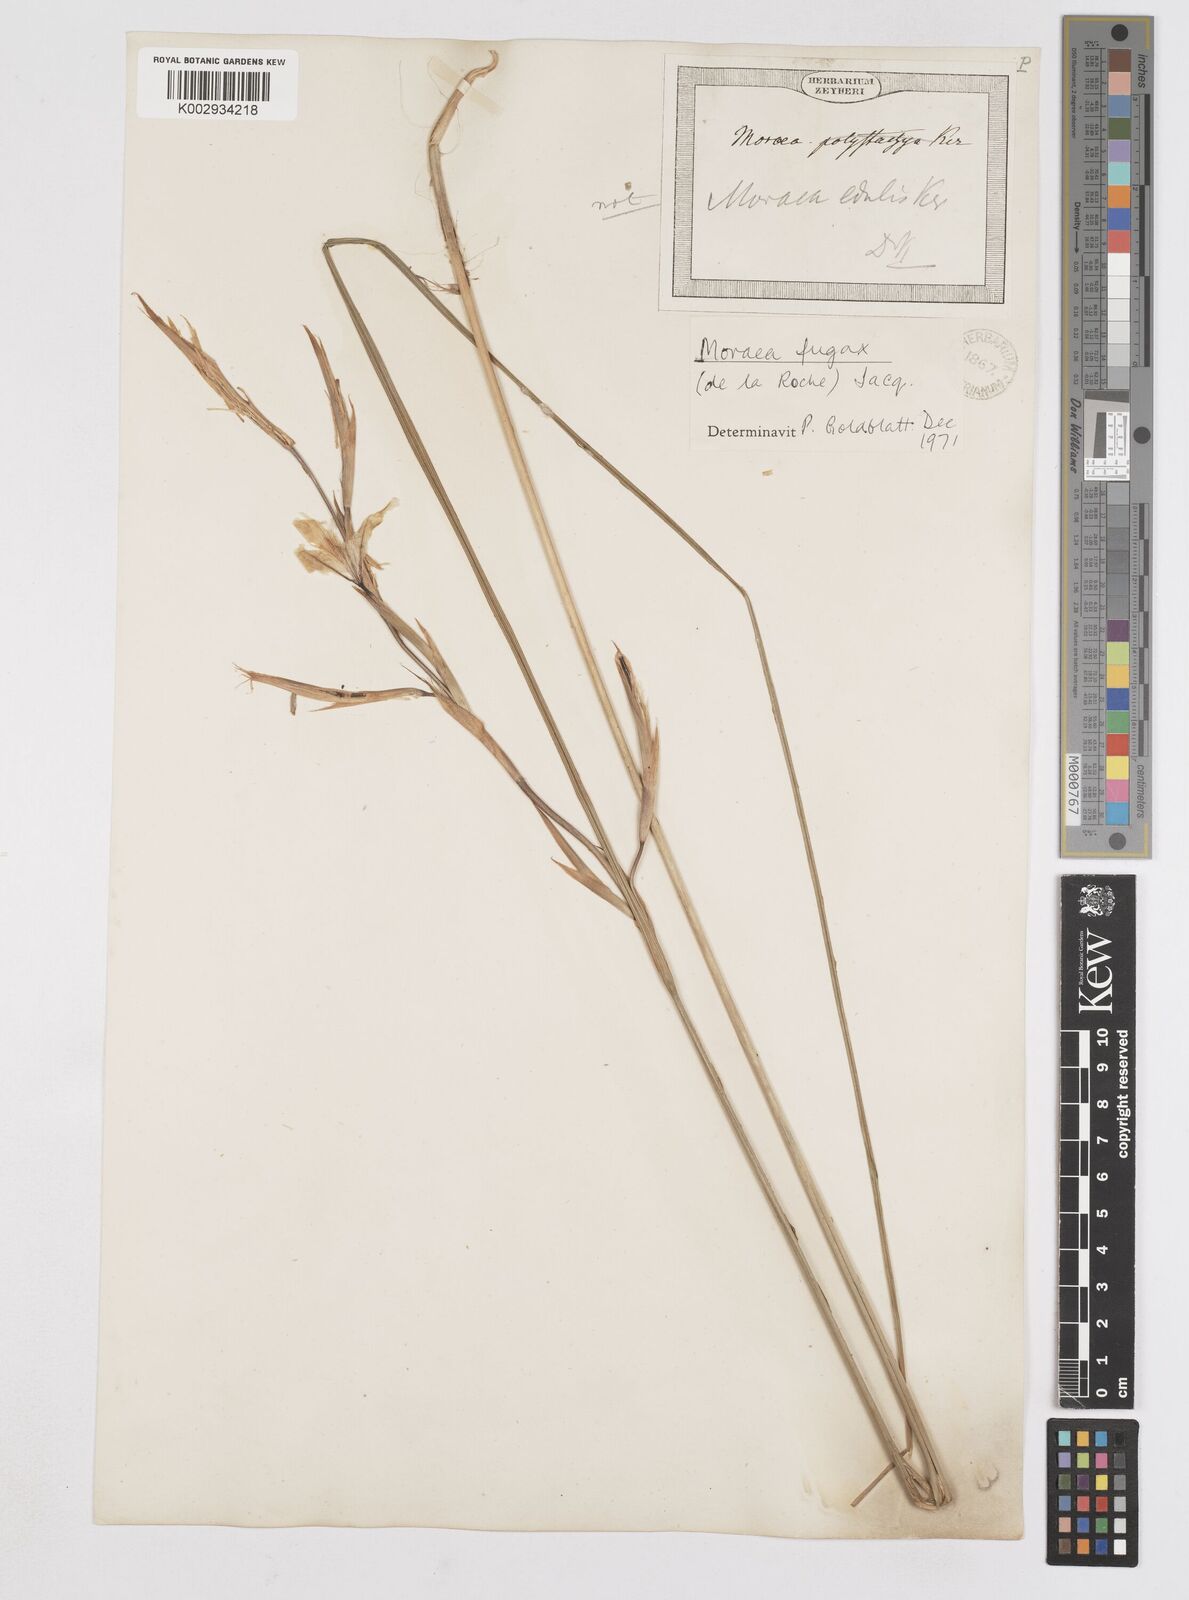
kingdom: Plantae
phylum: Tracheophyta
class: Liliopsida
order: Asparagales
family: Iridaceae
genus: Moraea
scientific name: Moraea fugax
